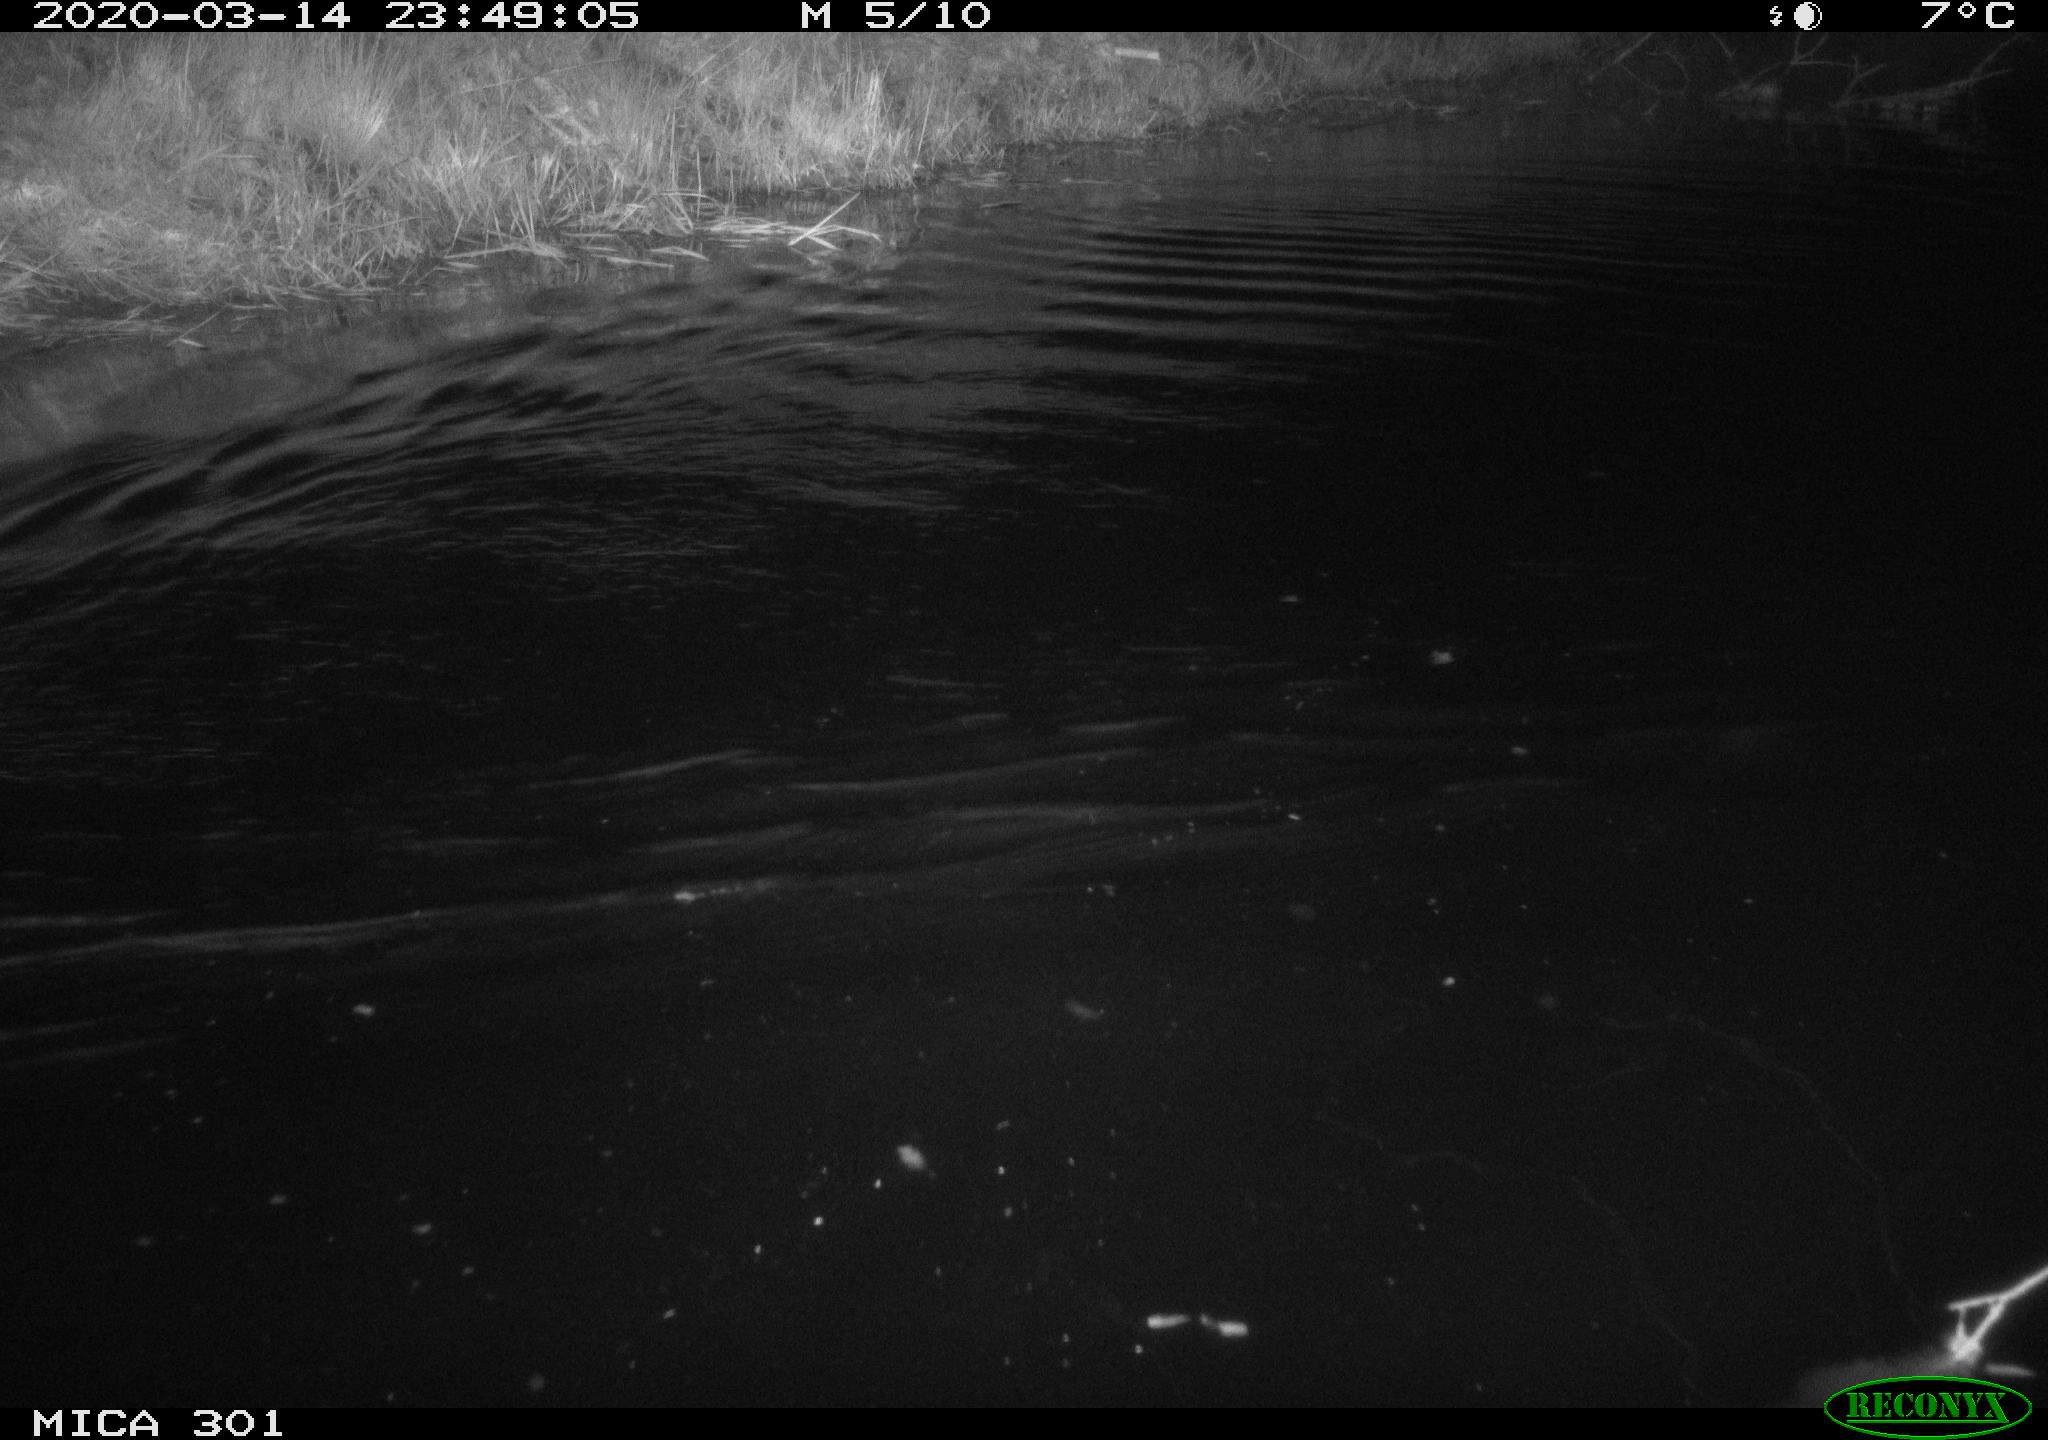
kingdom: Animalia
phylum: Chordata
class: Mammalia
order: Rodentia
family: Castoridae
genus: Castor
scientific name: Castor fiber
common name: Eurasian beaver
